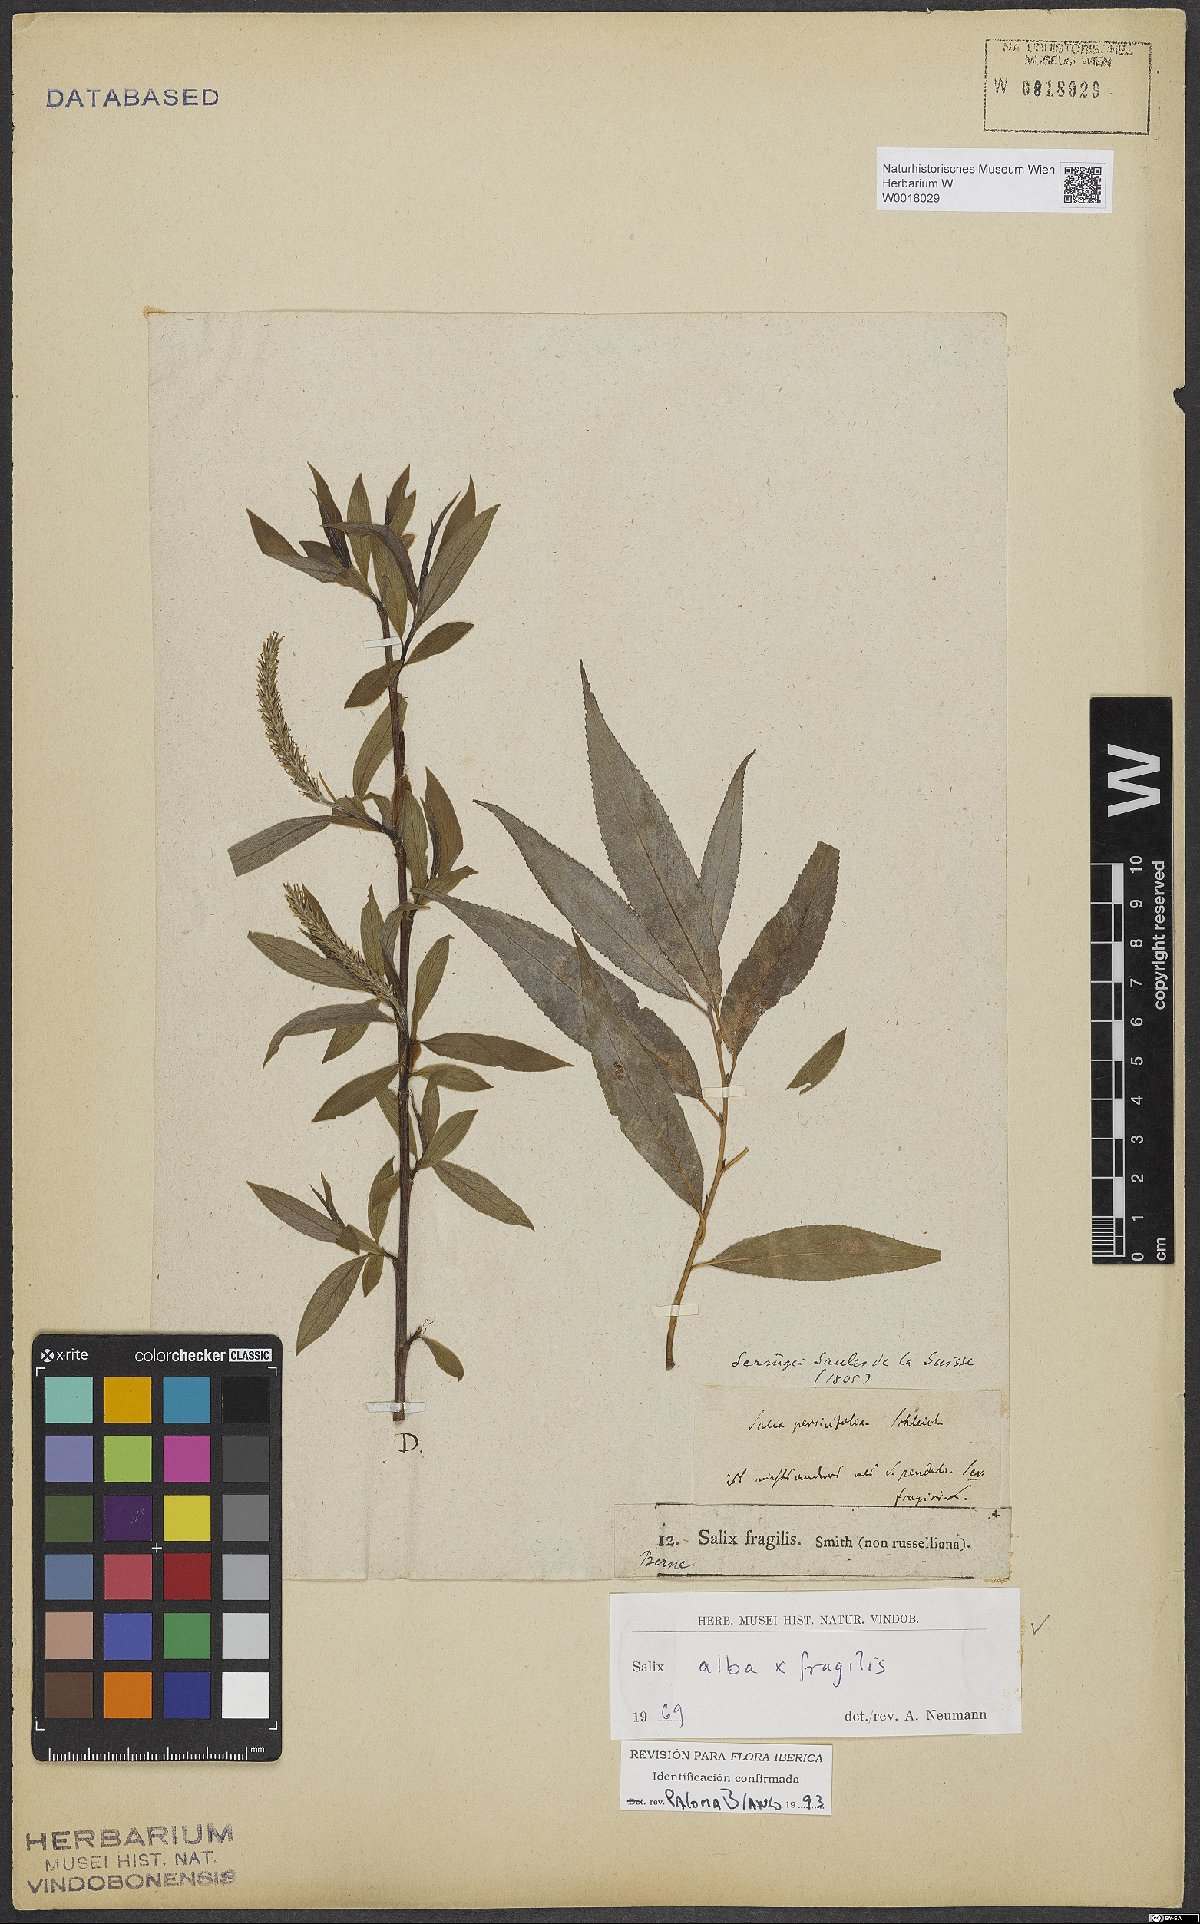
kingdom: Plantae
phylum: Tracheophyta
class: Magnoliopsida
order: Malpighiales
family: Salicaceae
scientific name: Salicaceae
